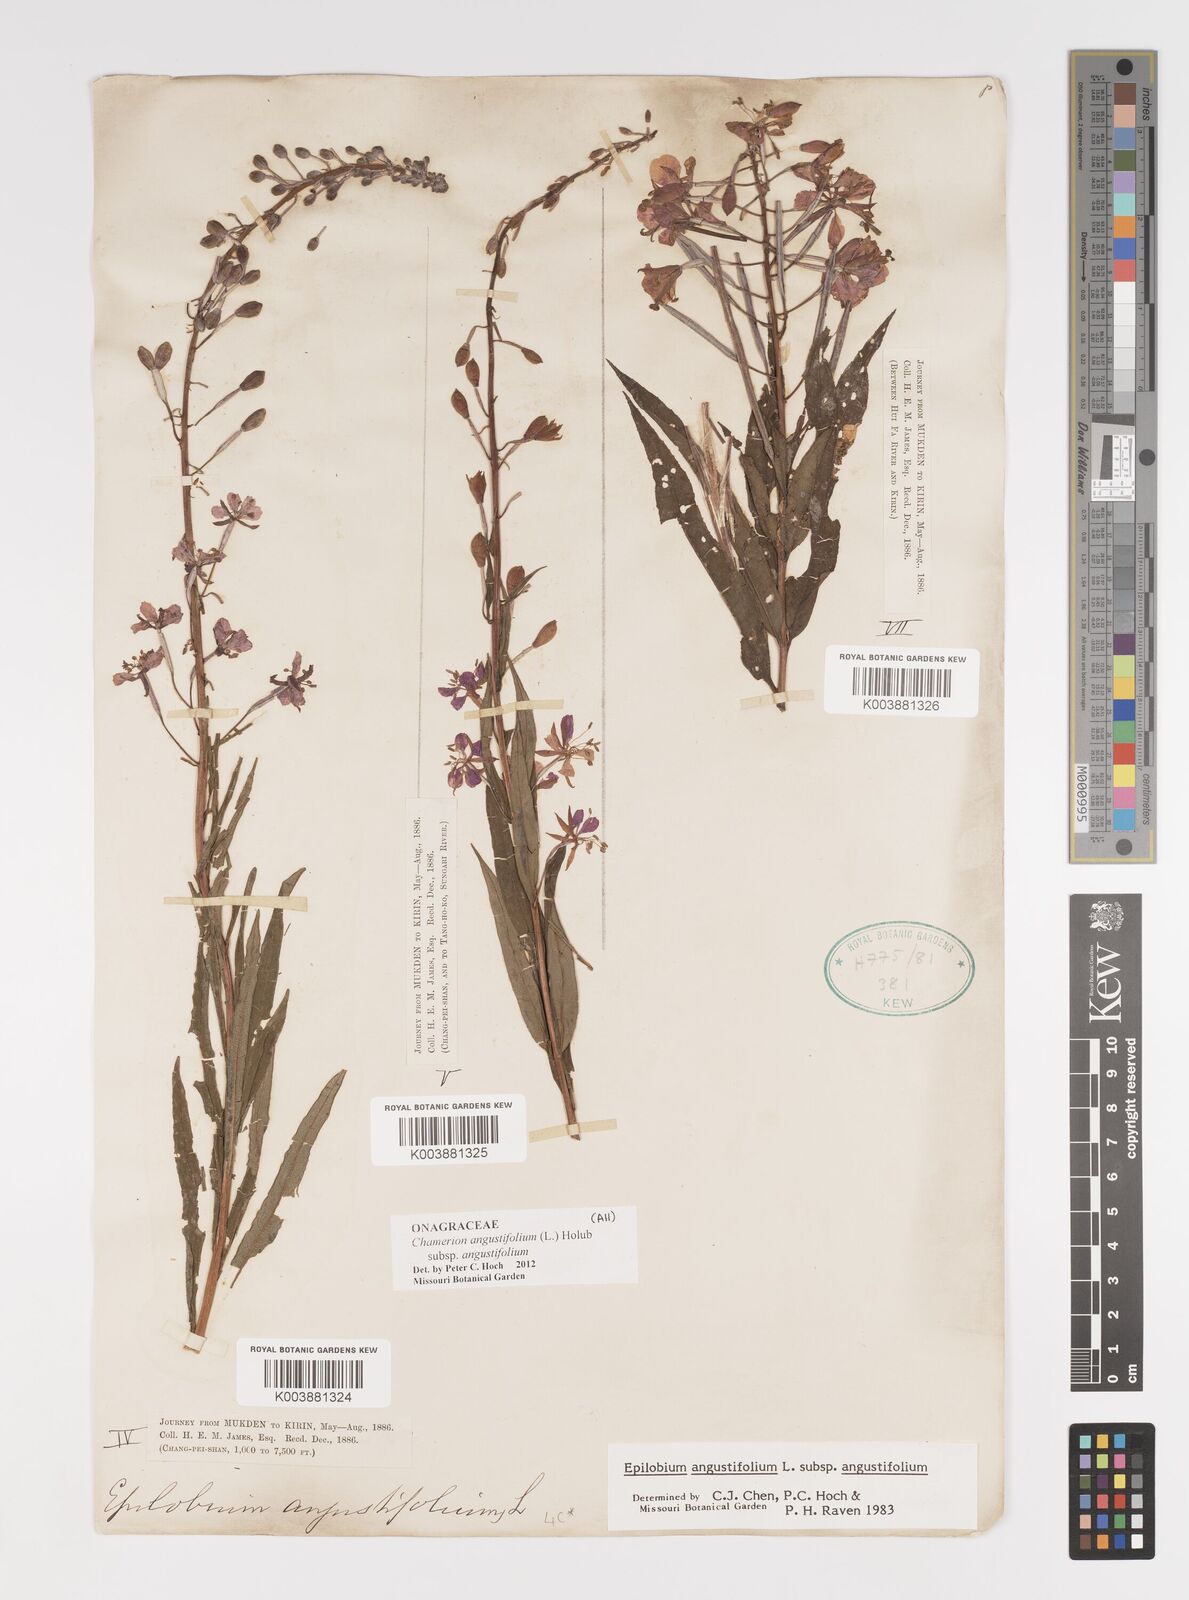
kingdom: Plantae
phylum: Tracheophyta
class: Magnoliopsida
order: Myrtales
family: Onagraceae
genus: Chamaenerion
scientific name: Chamaenerion angustifolium
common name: Fireweed
